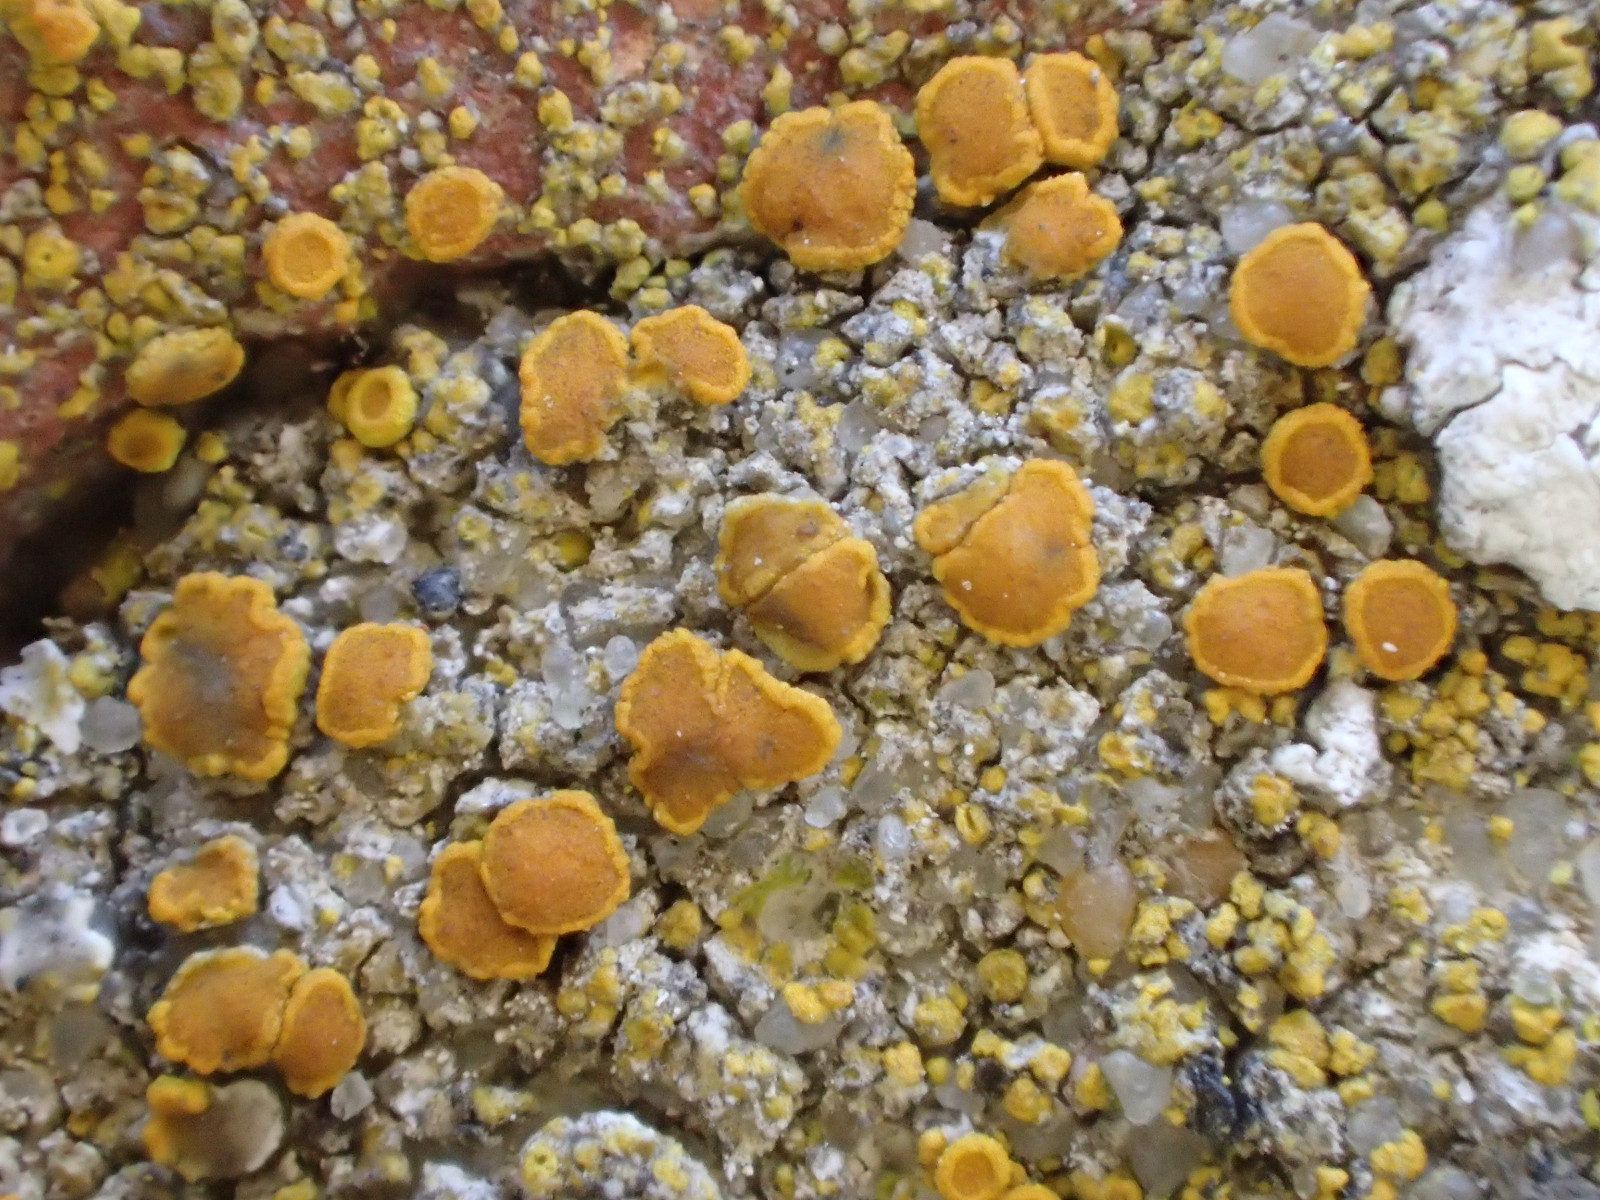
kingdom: Fungi
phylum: Ascomycota
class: Lecanoromycetes
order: Teloschistales
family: Teloschistaceae
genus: Flavoplaca
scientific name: Flavoplaca citrina
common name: støvet orangelav
